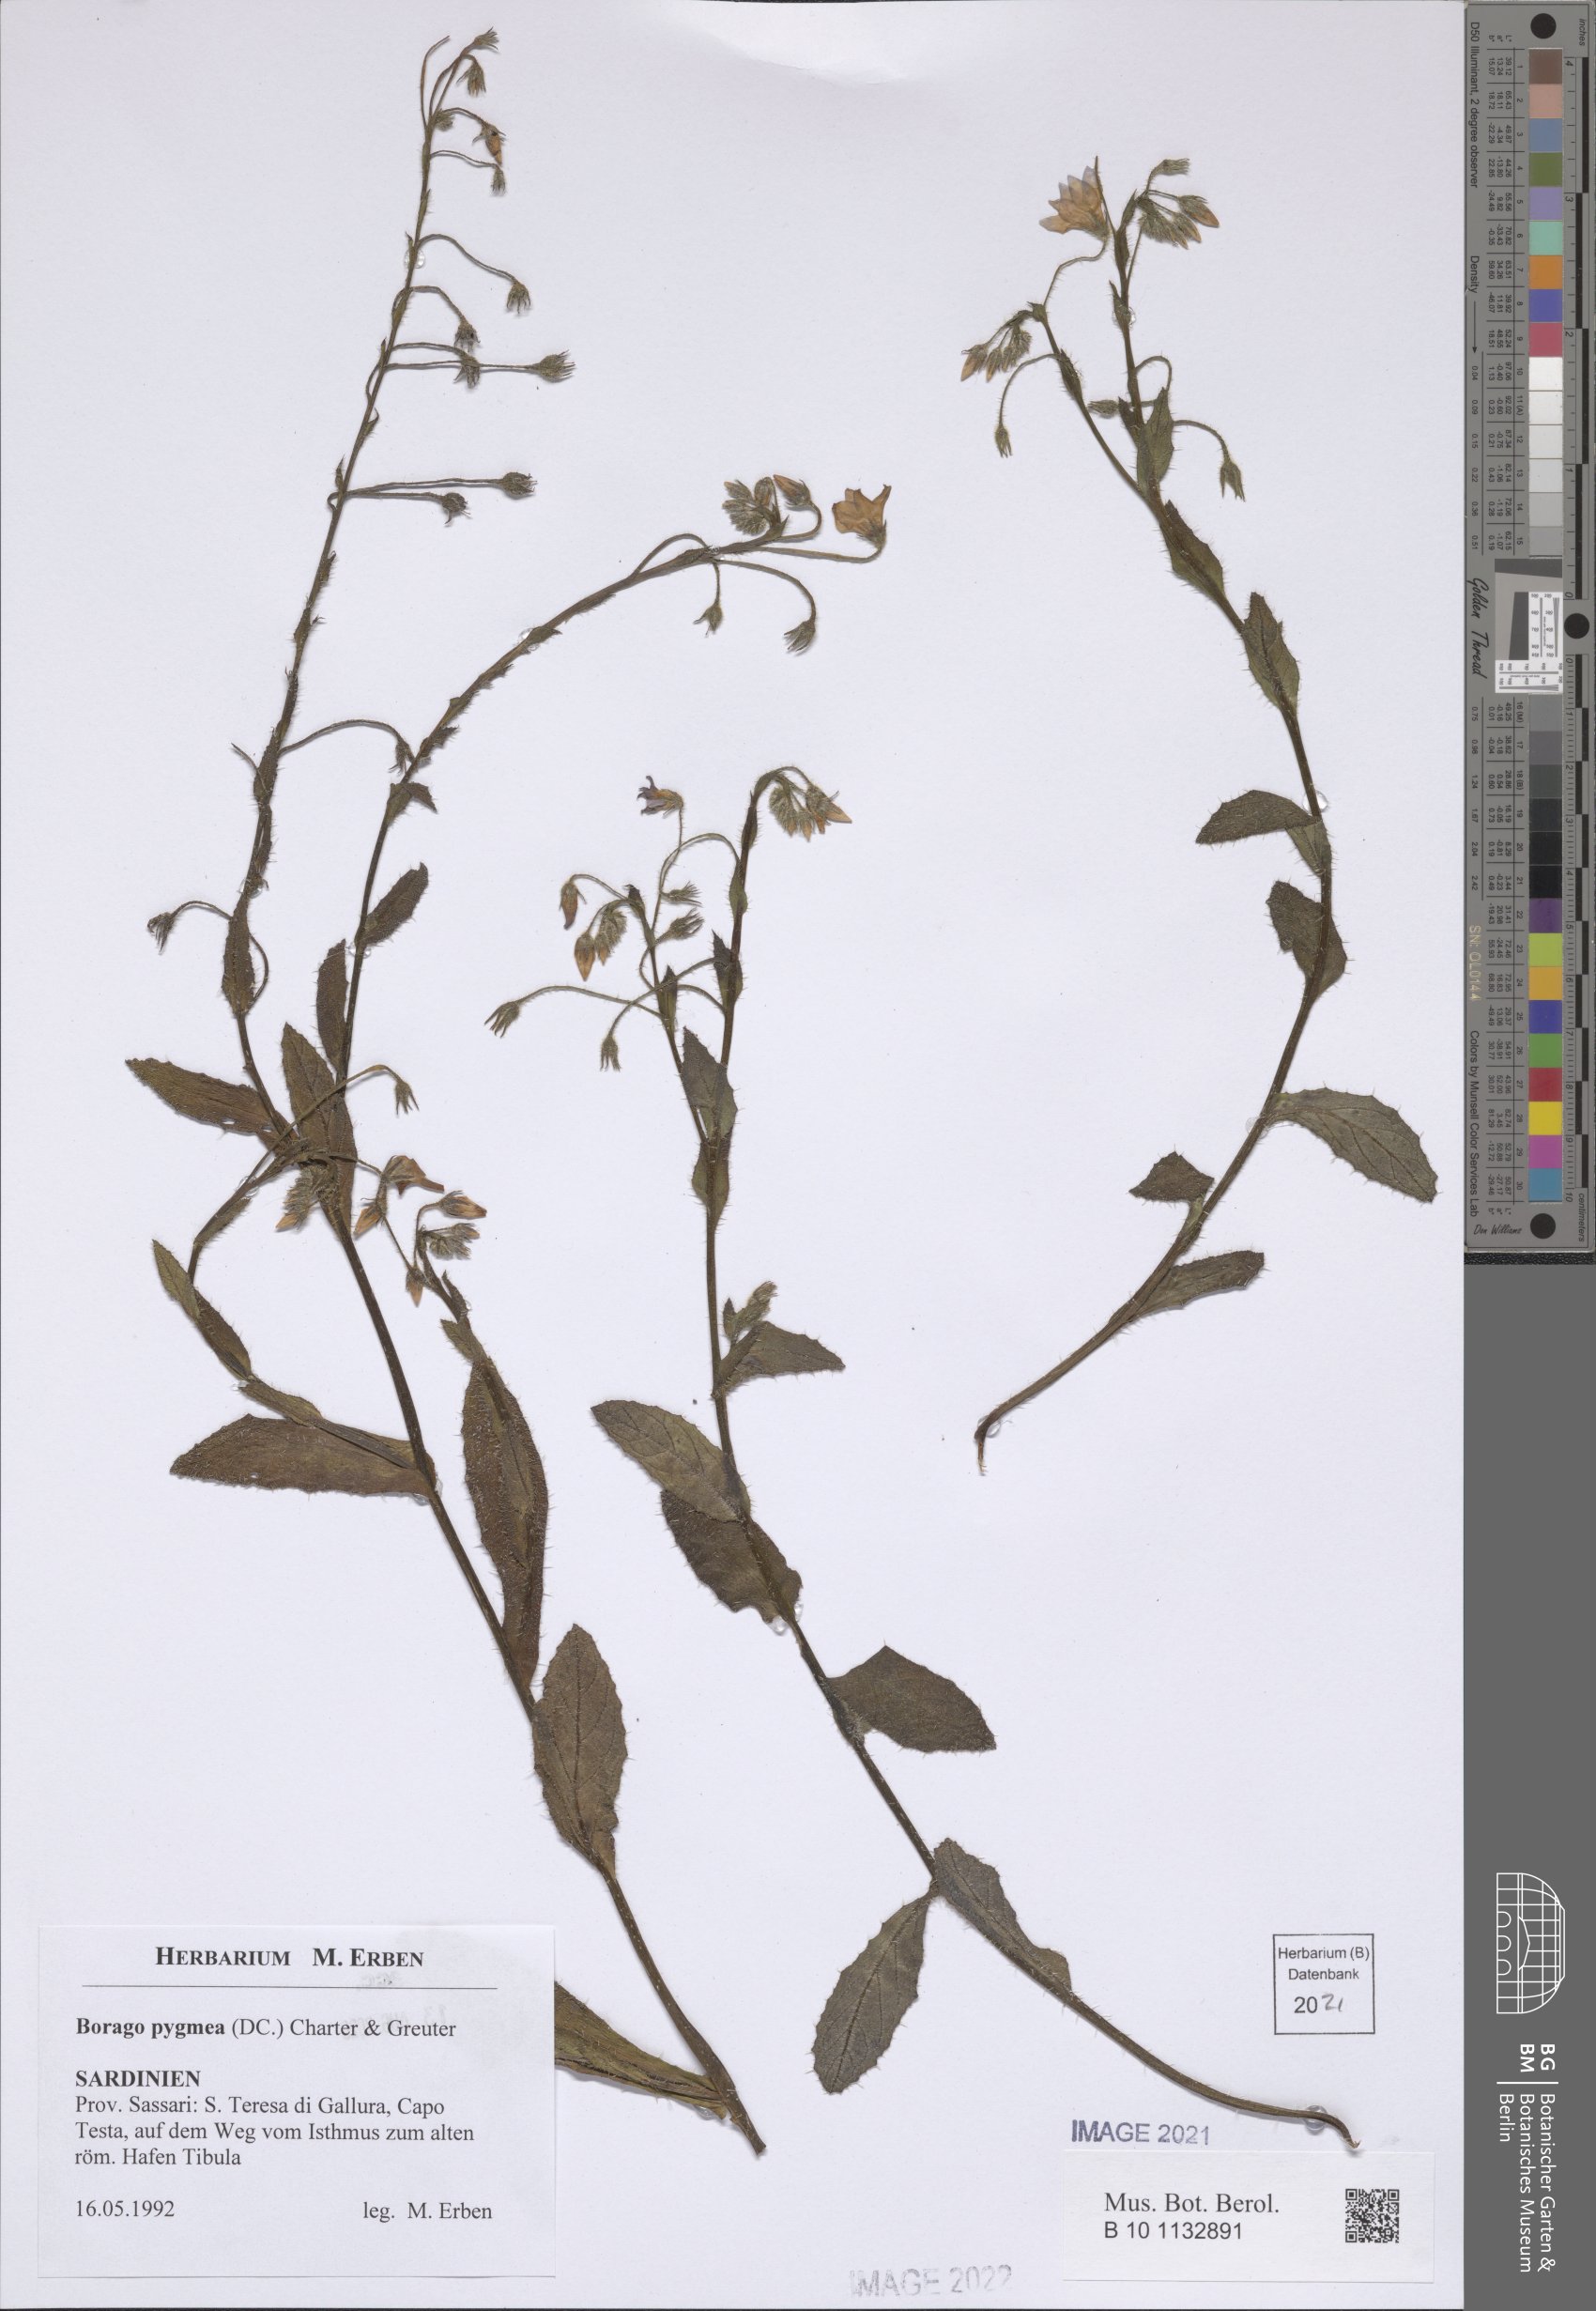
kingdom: Plantae
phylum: Tracheophyta
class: Magnoliopsida
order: Boraginales
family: Boraginaceae
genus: Borago
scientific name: Borago pygmaea
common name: Slender borage
